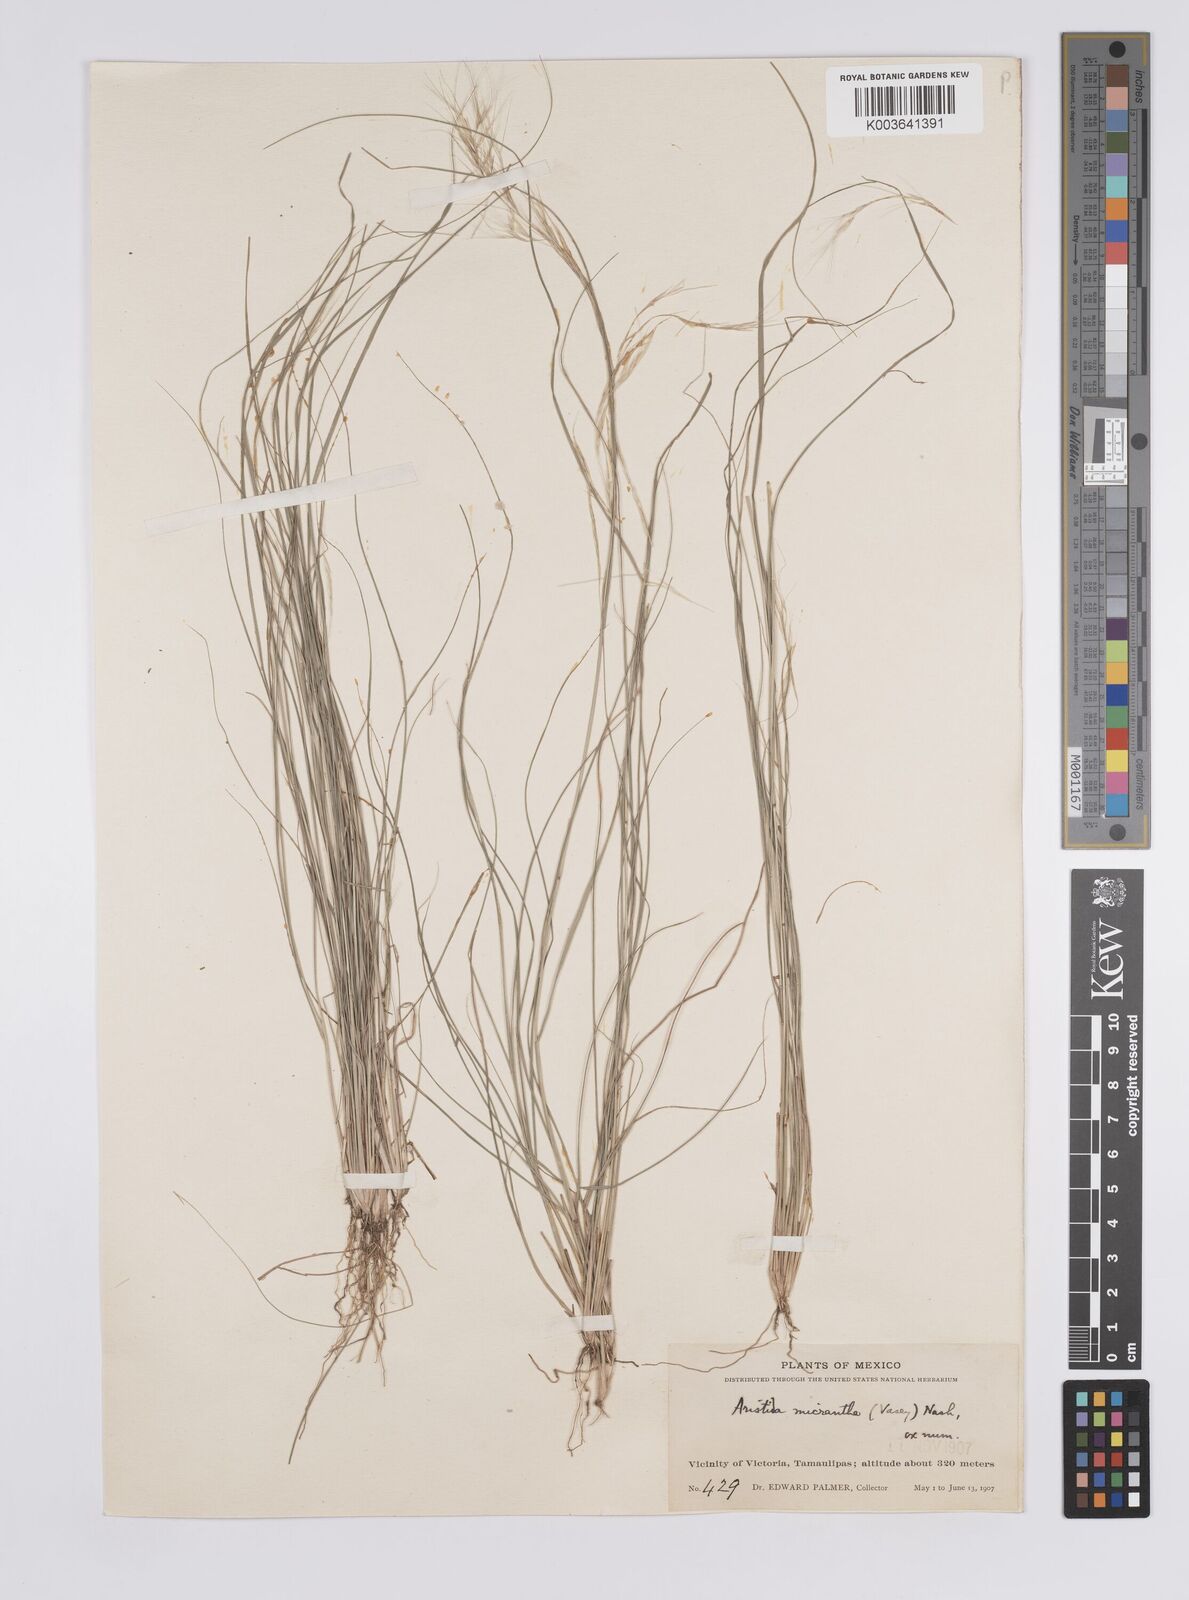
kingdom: Plantae
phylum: Tracheophyta
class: Liliopsida
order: Poales
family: Poaceae
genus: Aristida
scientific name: Aristida purpurea
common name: Purple threeawn
